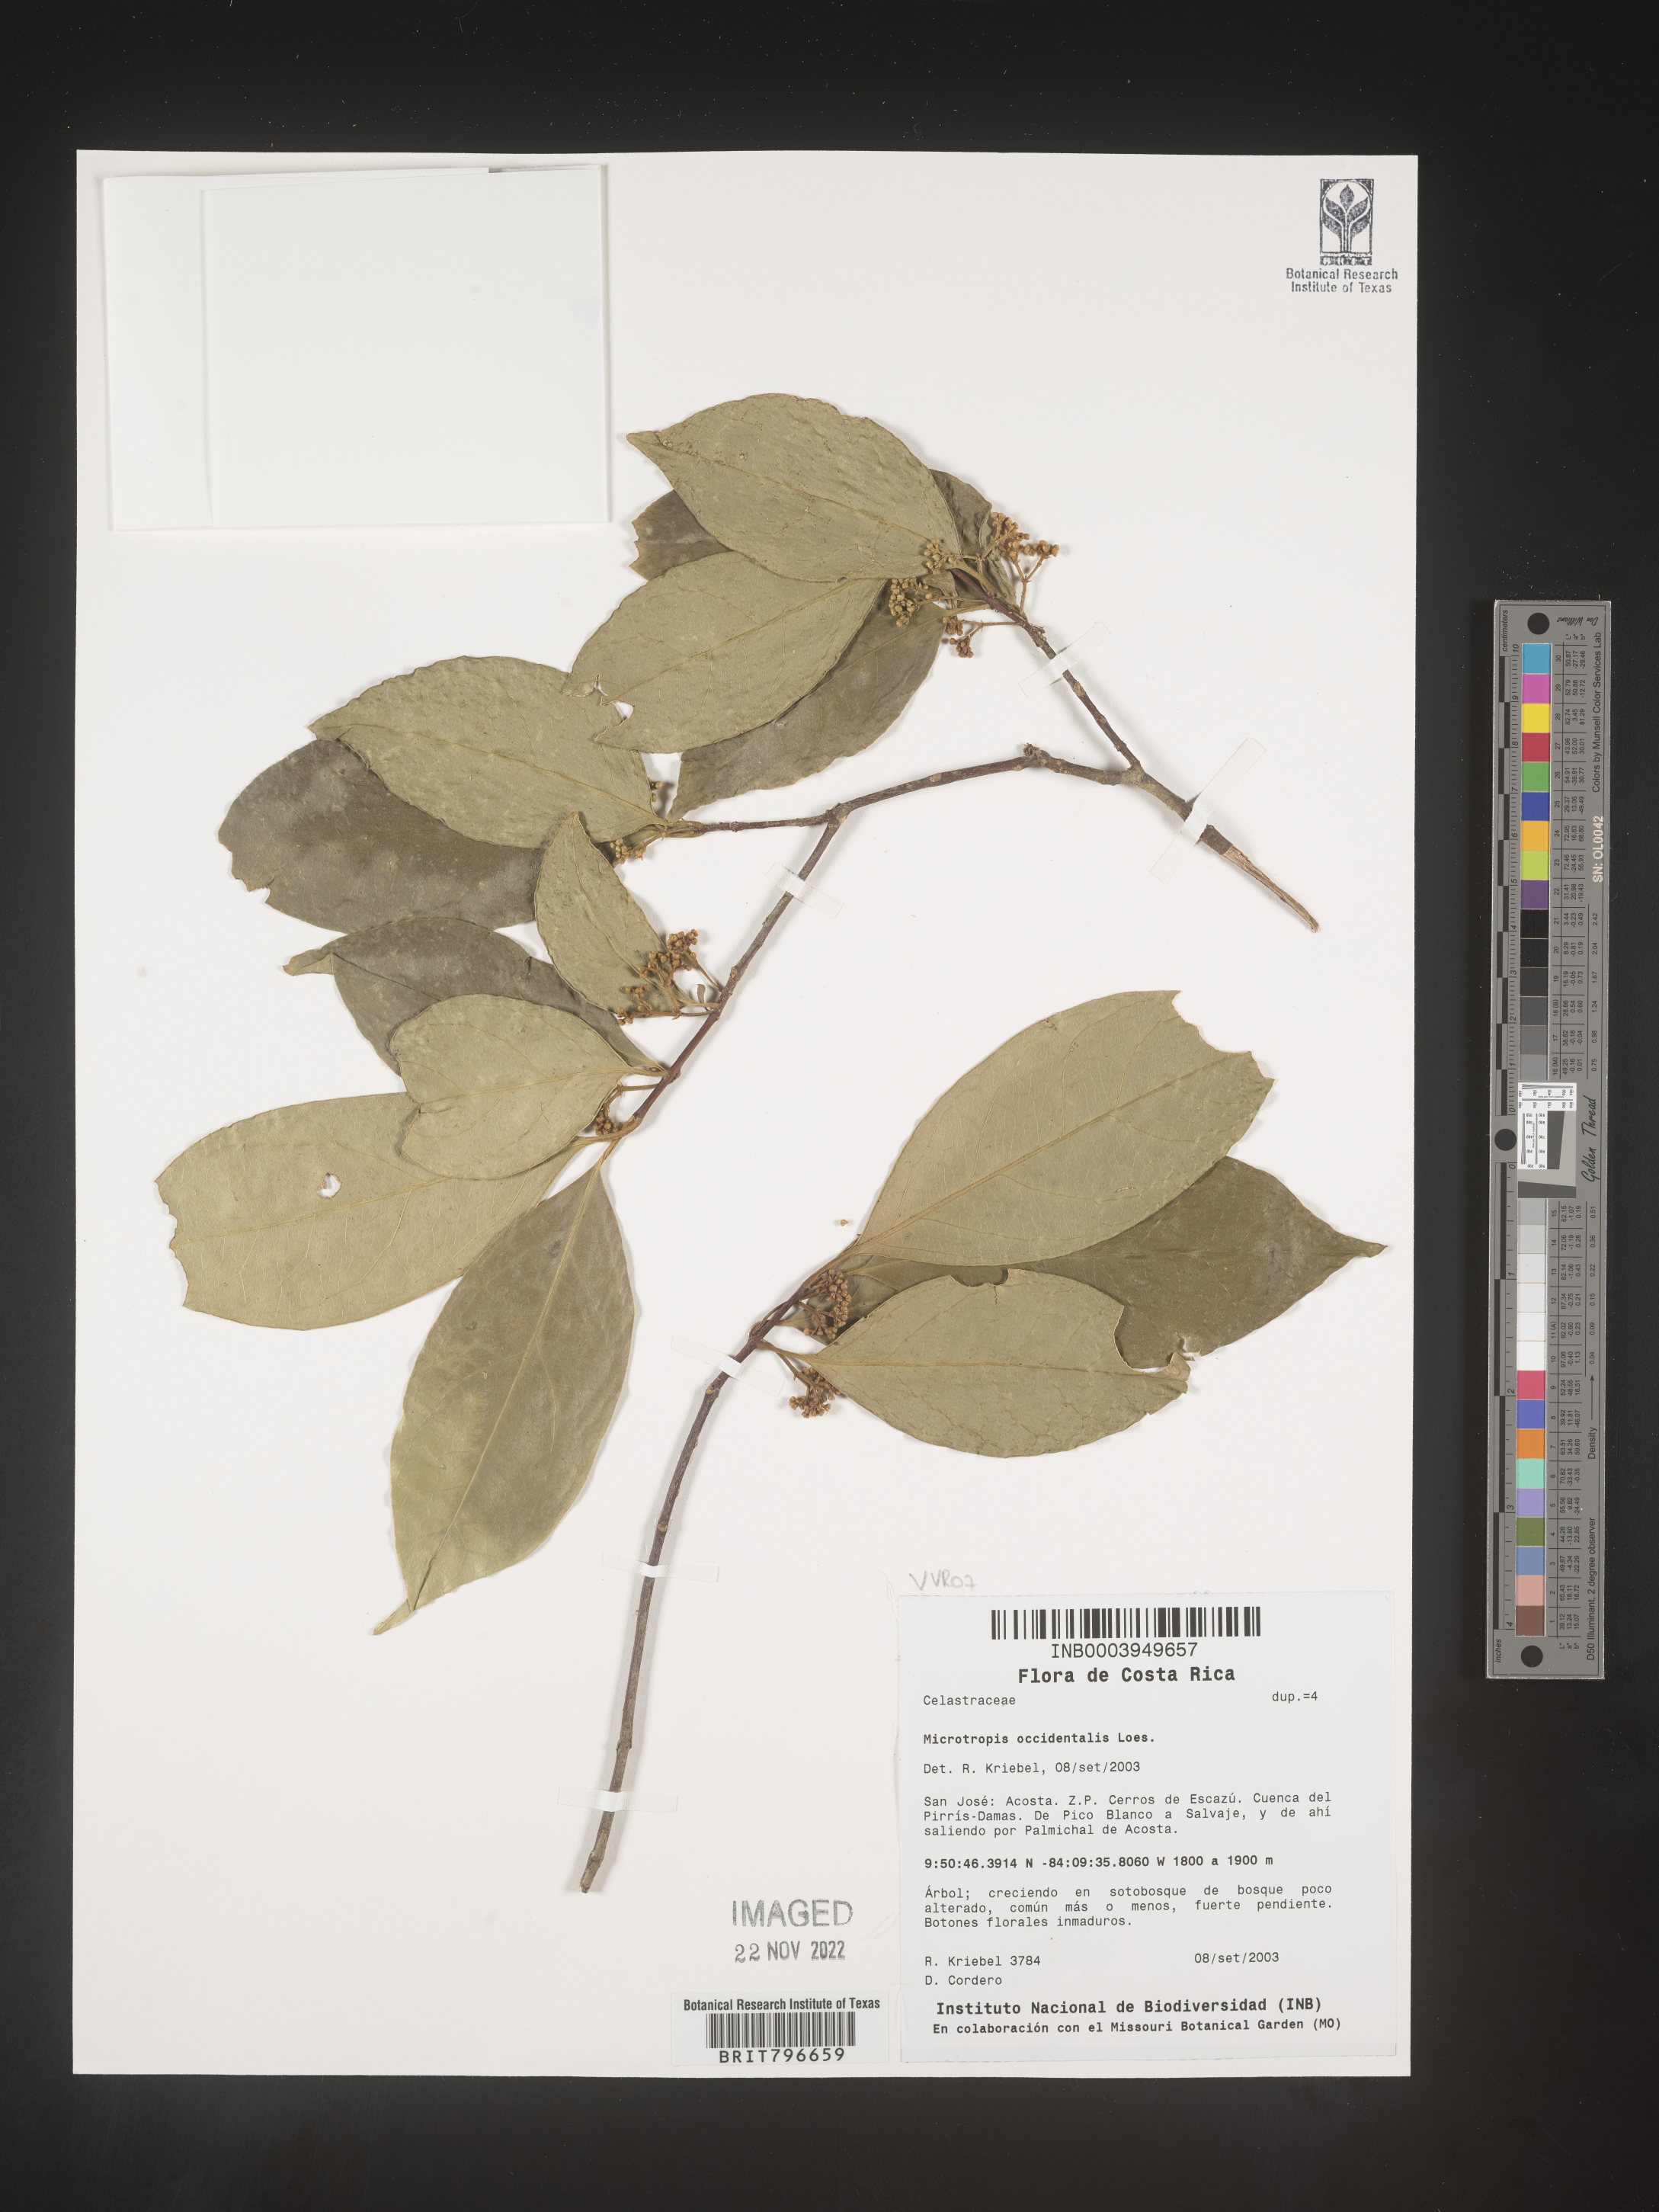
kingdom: Plantae
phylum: Tracheophyta
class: Magnoliopsida
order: Celastrales
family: Celastraceae
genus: Quetzalia
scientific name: Quetzalia occidentalis
